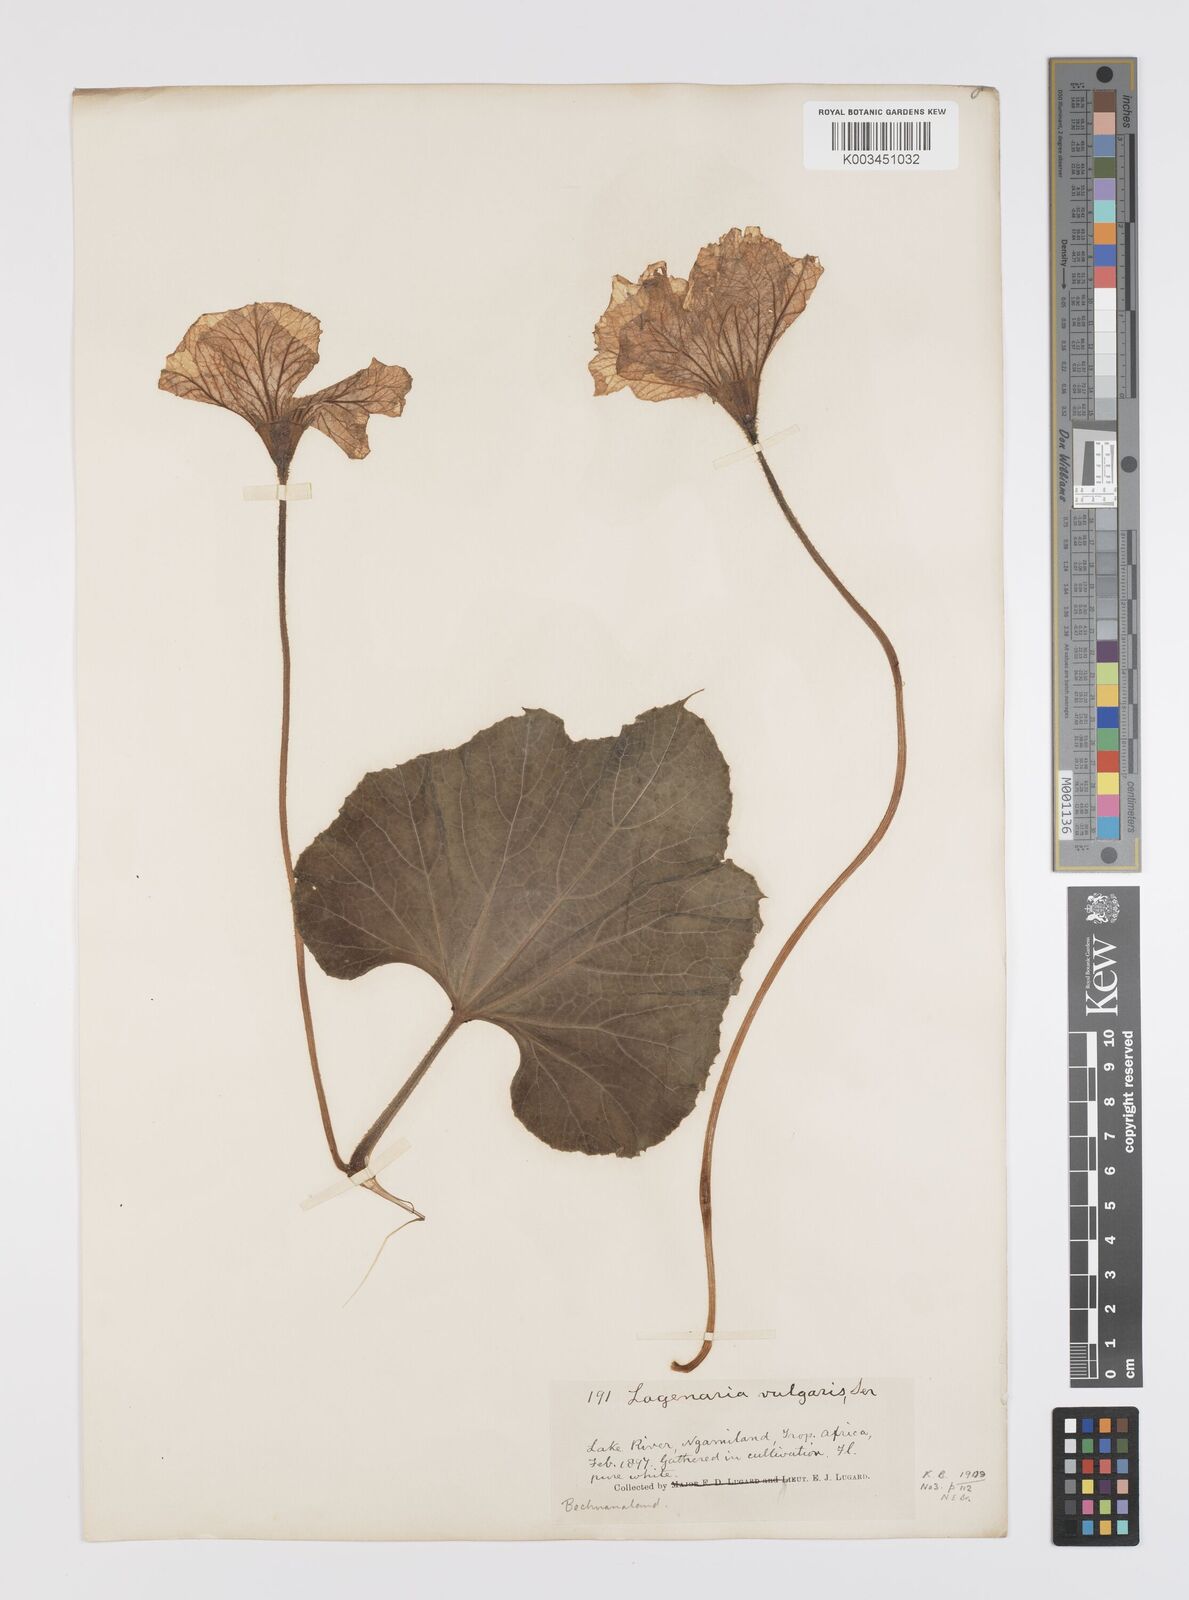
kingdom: Plantae
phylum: Tracheophyta
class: Magnoliopsida
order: Cucurbitales
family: Cucurbitaceae
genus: Lagenaria
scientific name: Lagenaria
